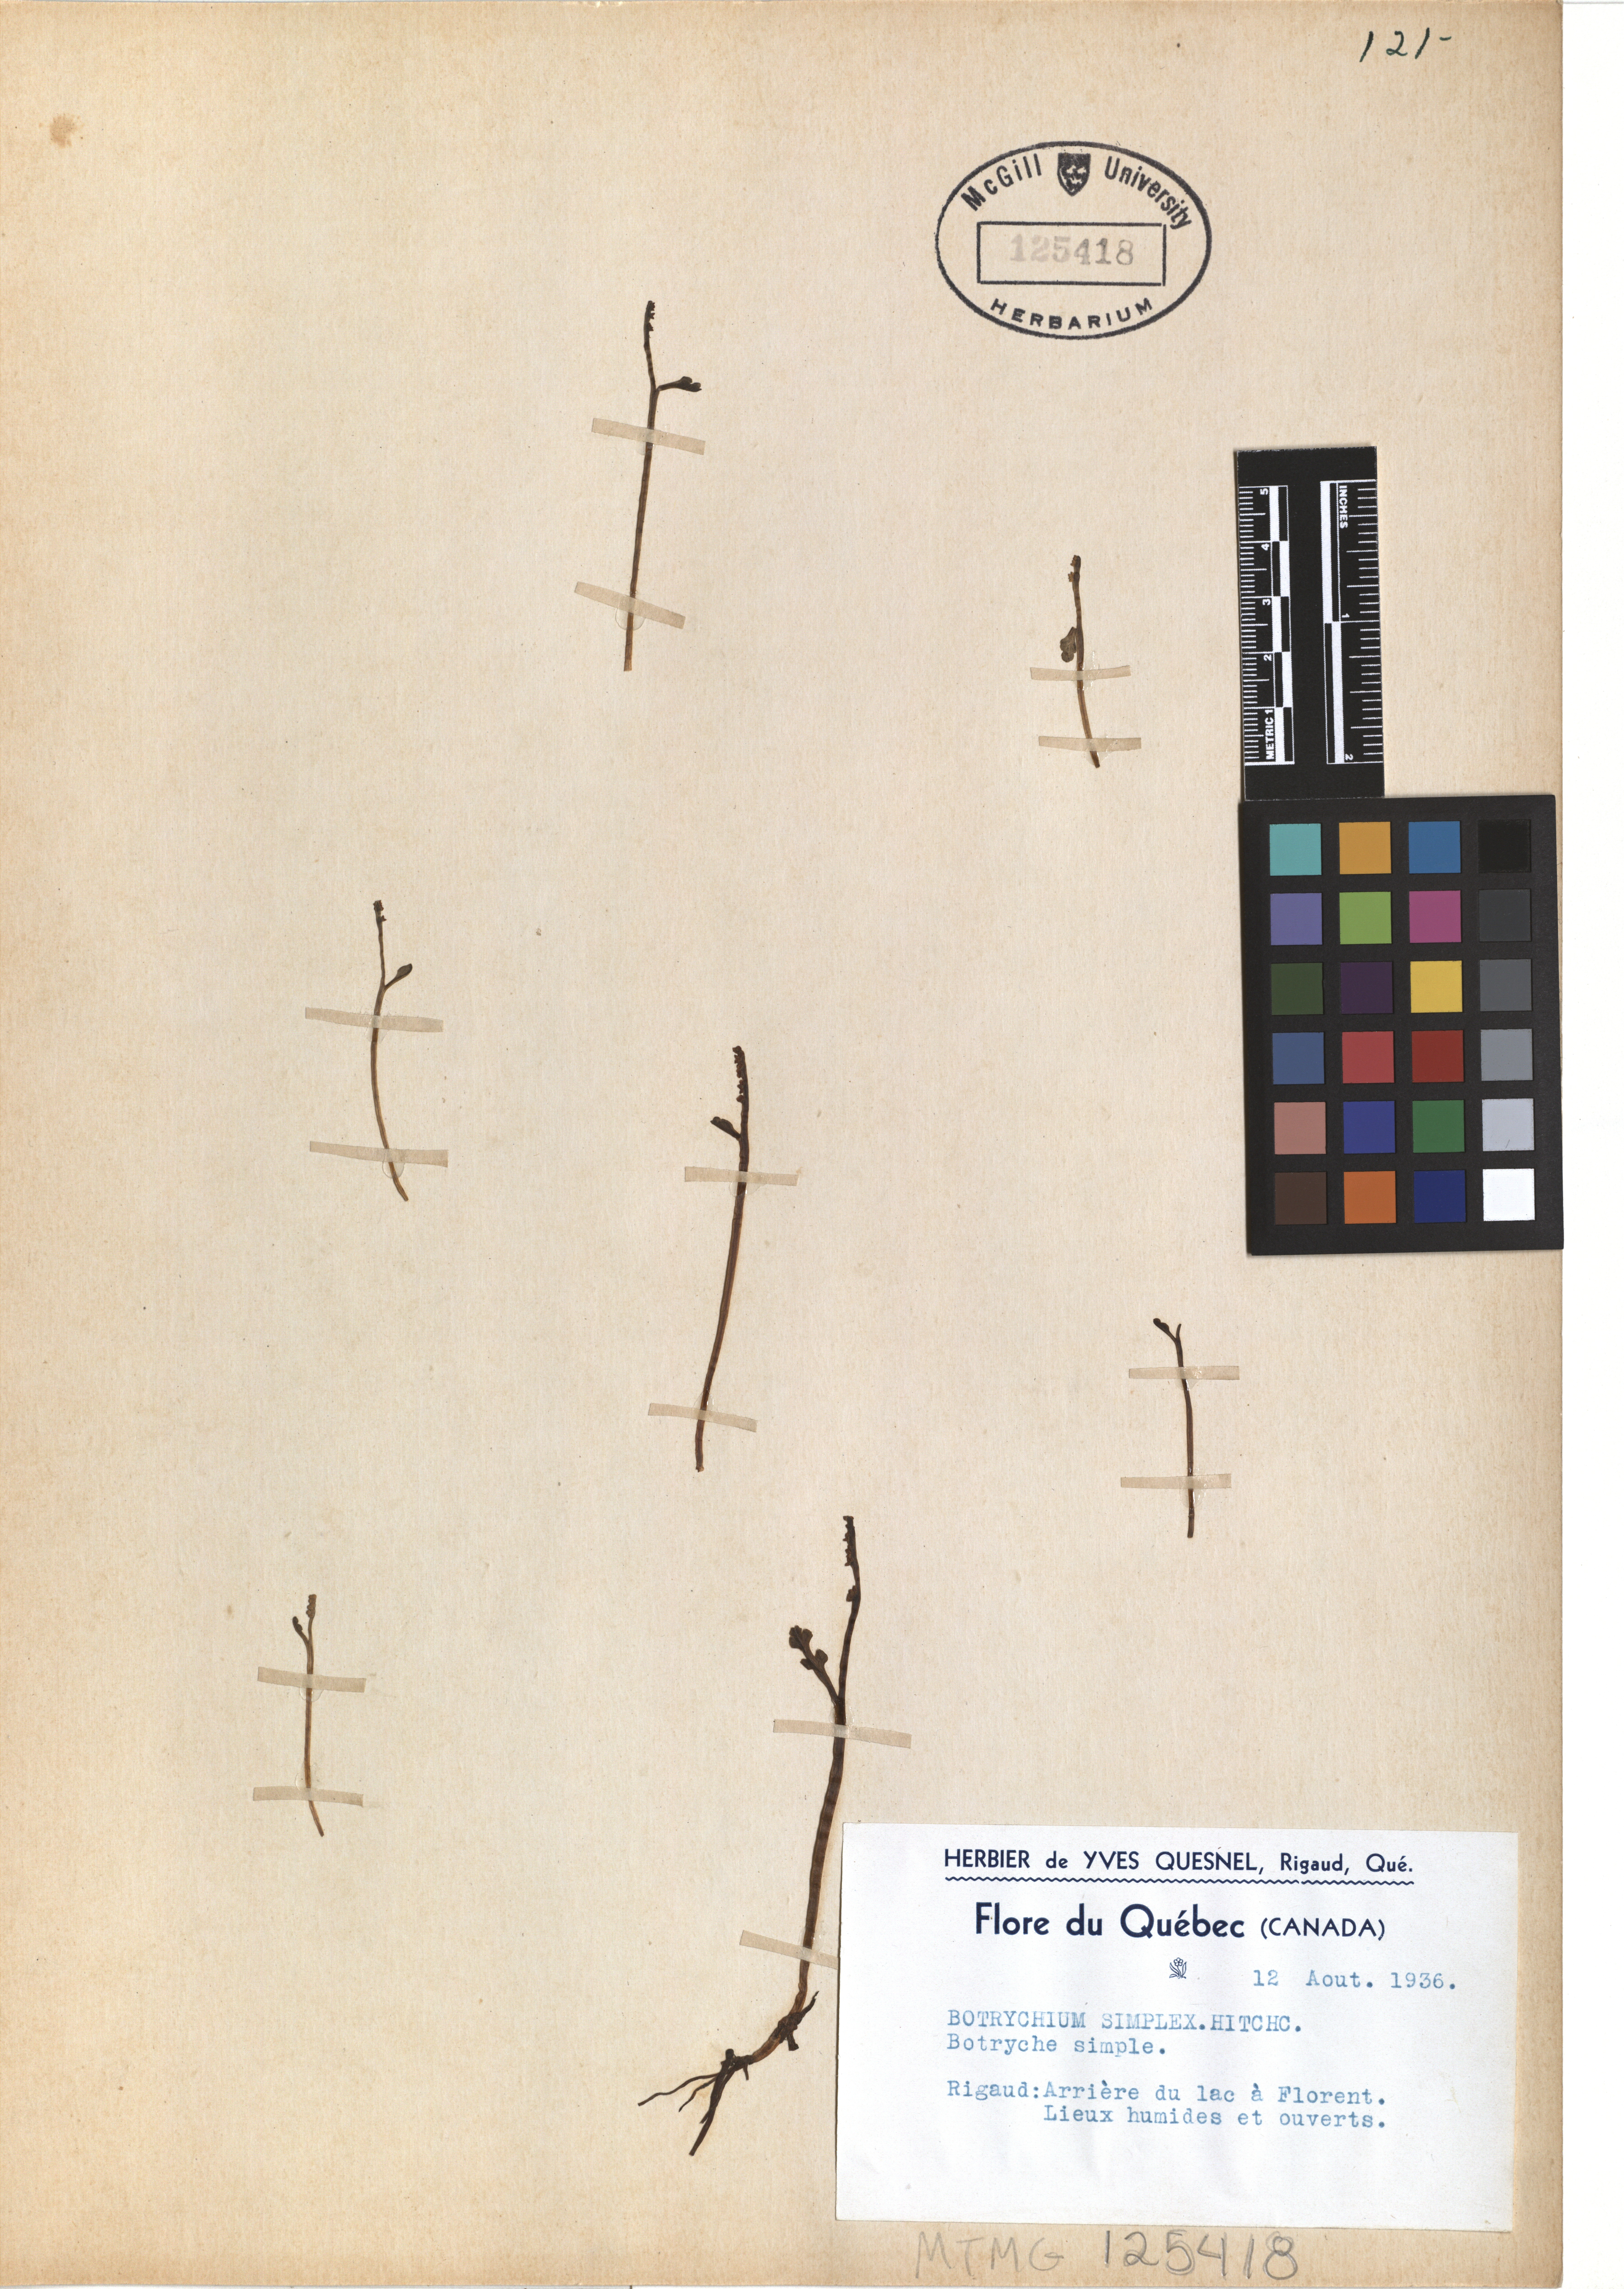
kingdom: Plantae
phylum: Tracheophyta
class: Polypodiopsida
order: Ophioglossales
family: Ophioglossaceae
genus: Botrychium
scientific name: Botrychium simplex
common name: Least moonwort
